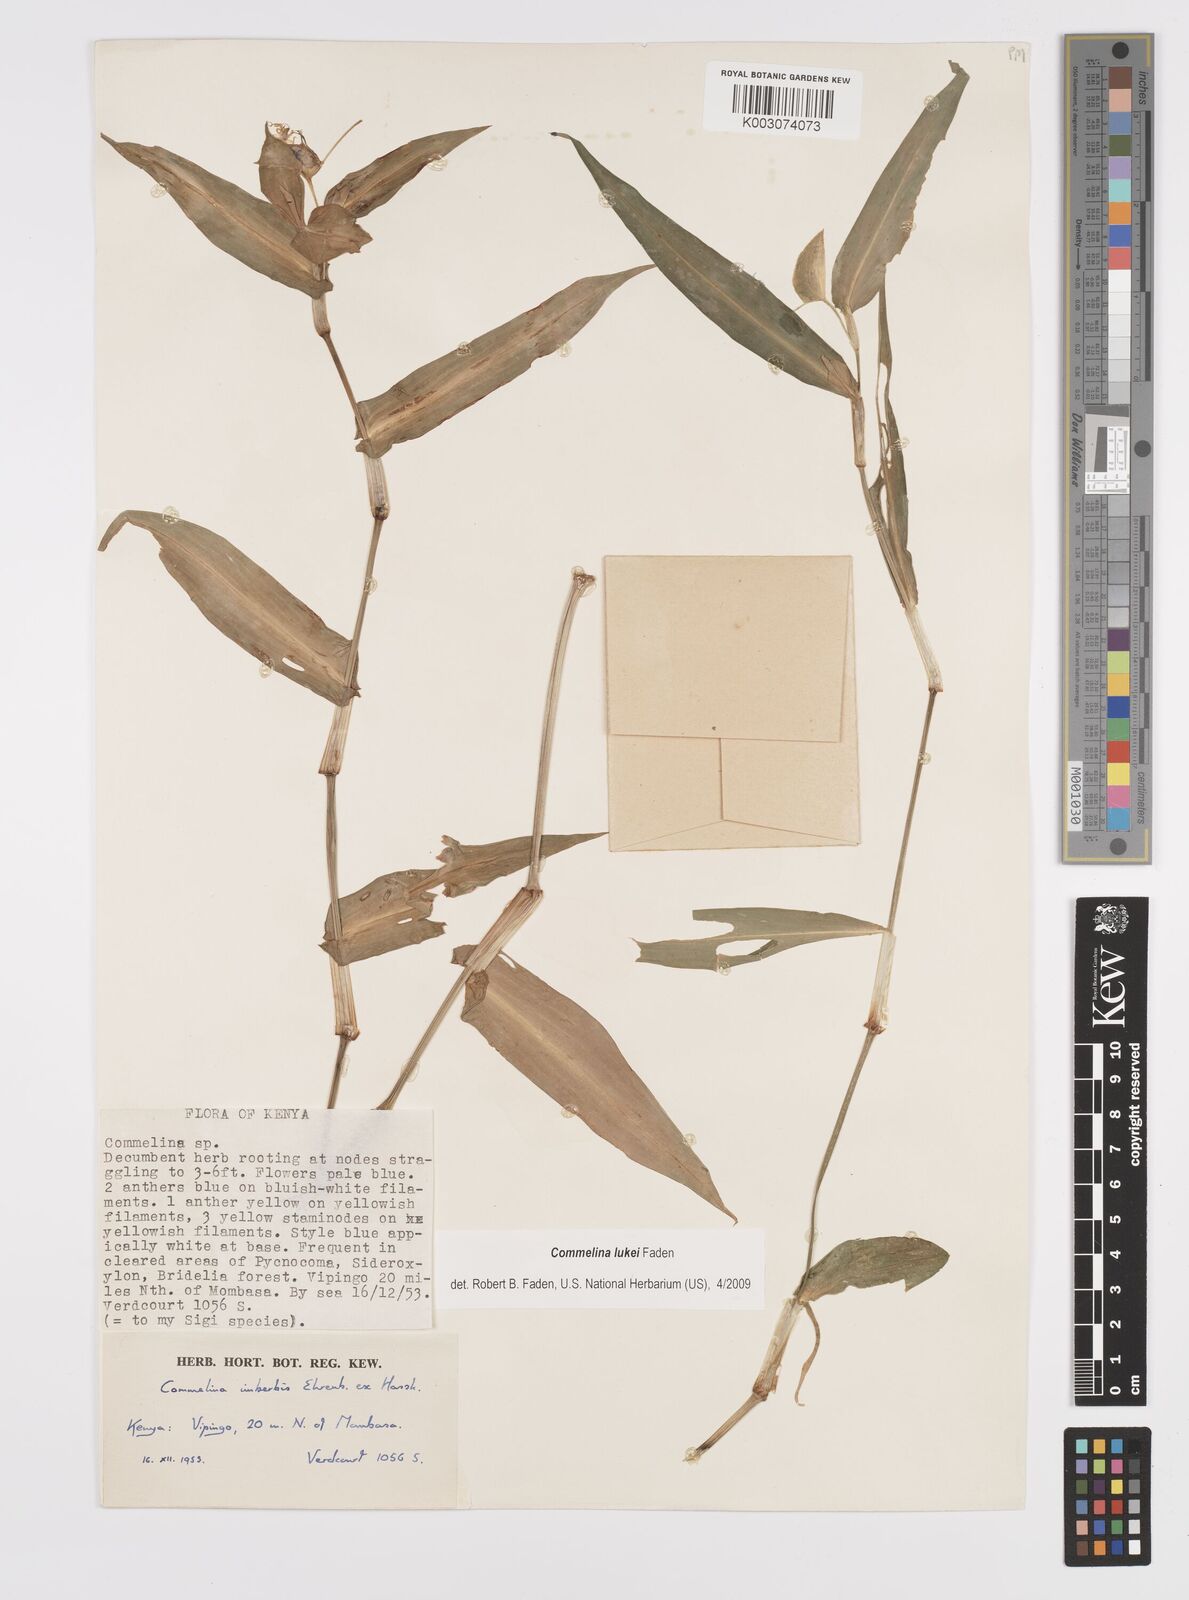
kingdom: Plantae
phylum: Tracheophyta
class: Liliopsida
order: Commelinales
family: Commelinaceae
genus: Commelina
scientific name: Commelina lukei
